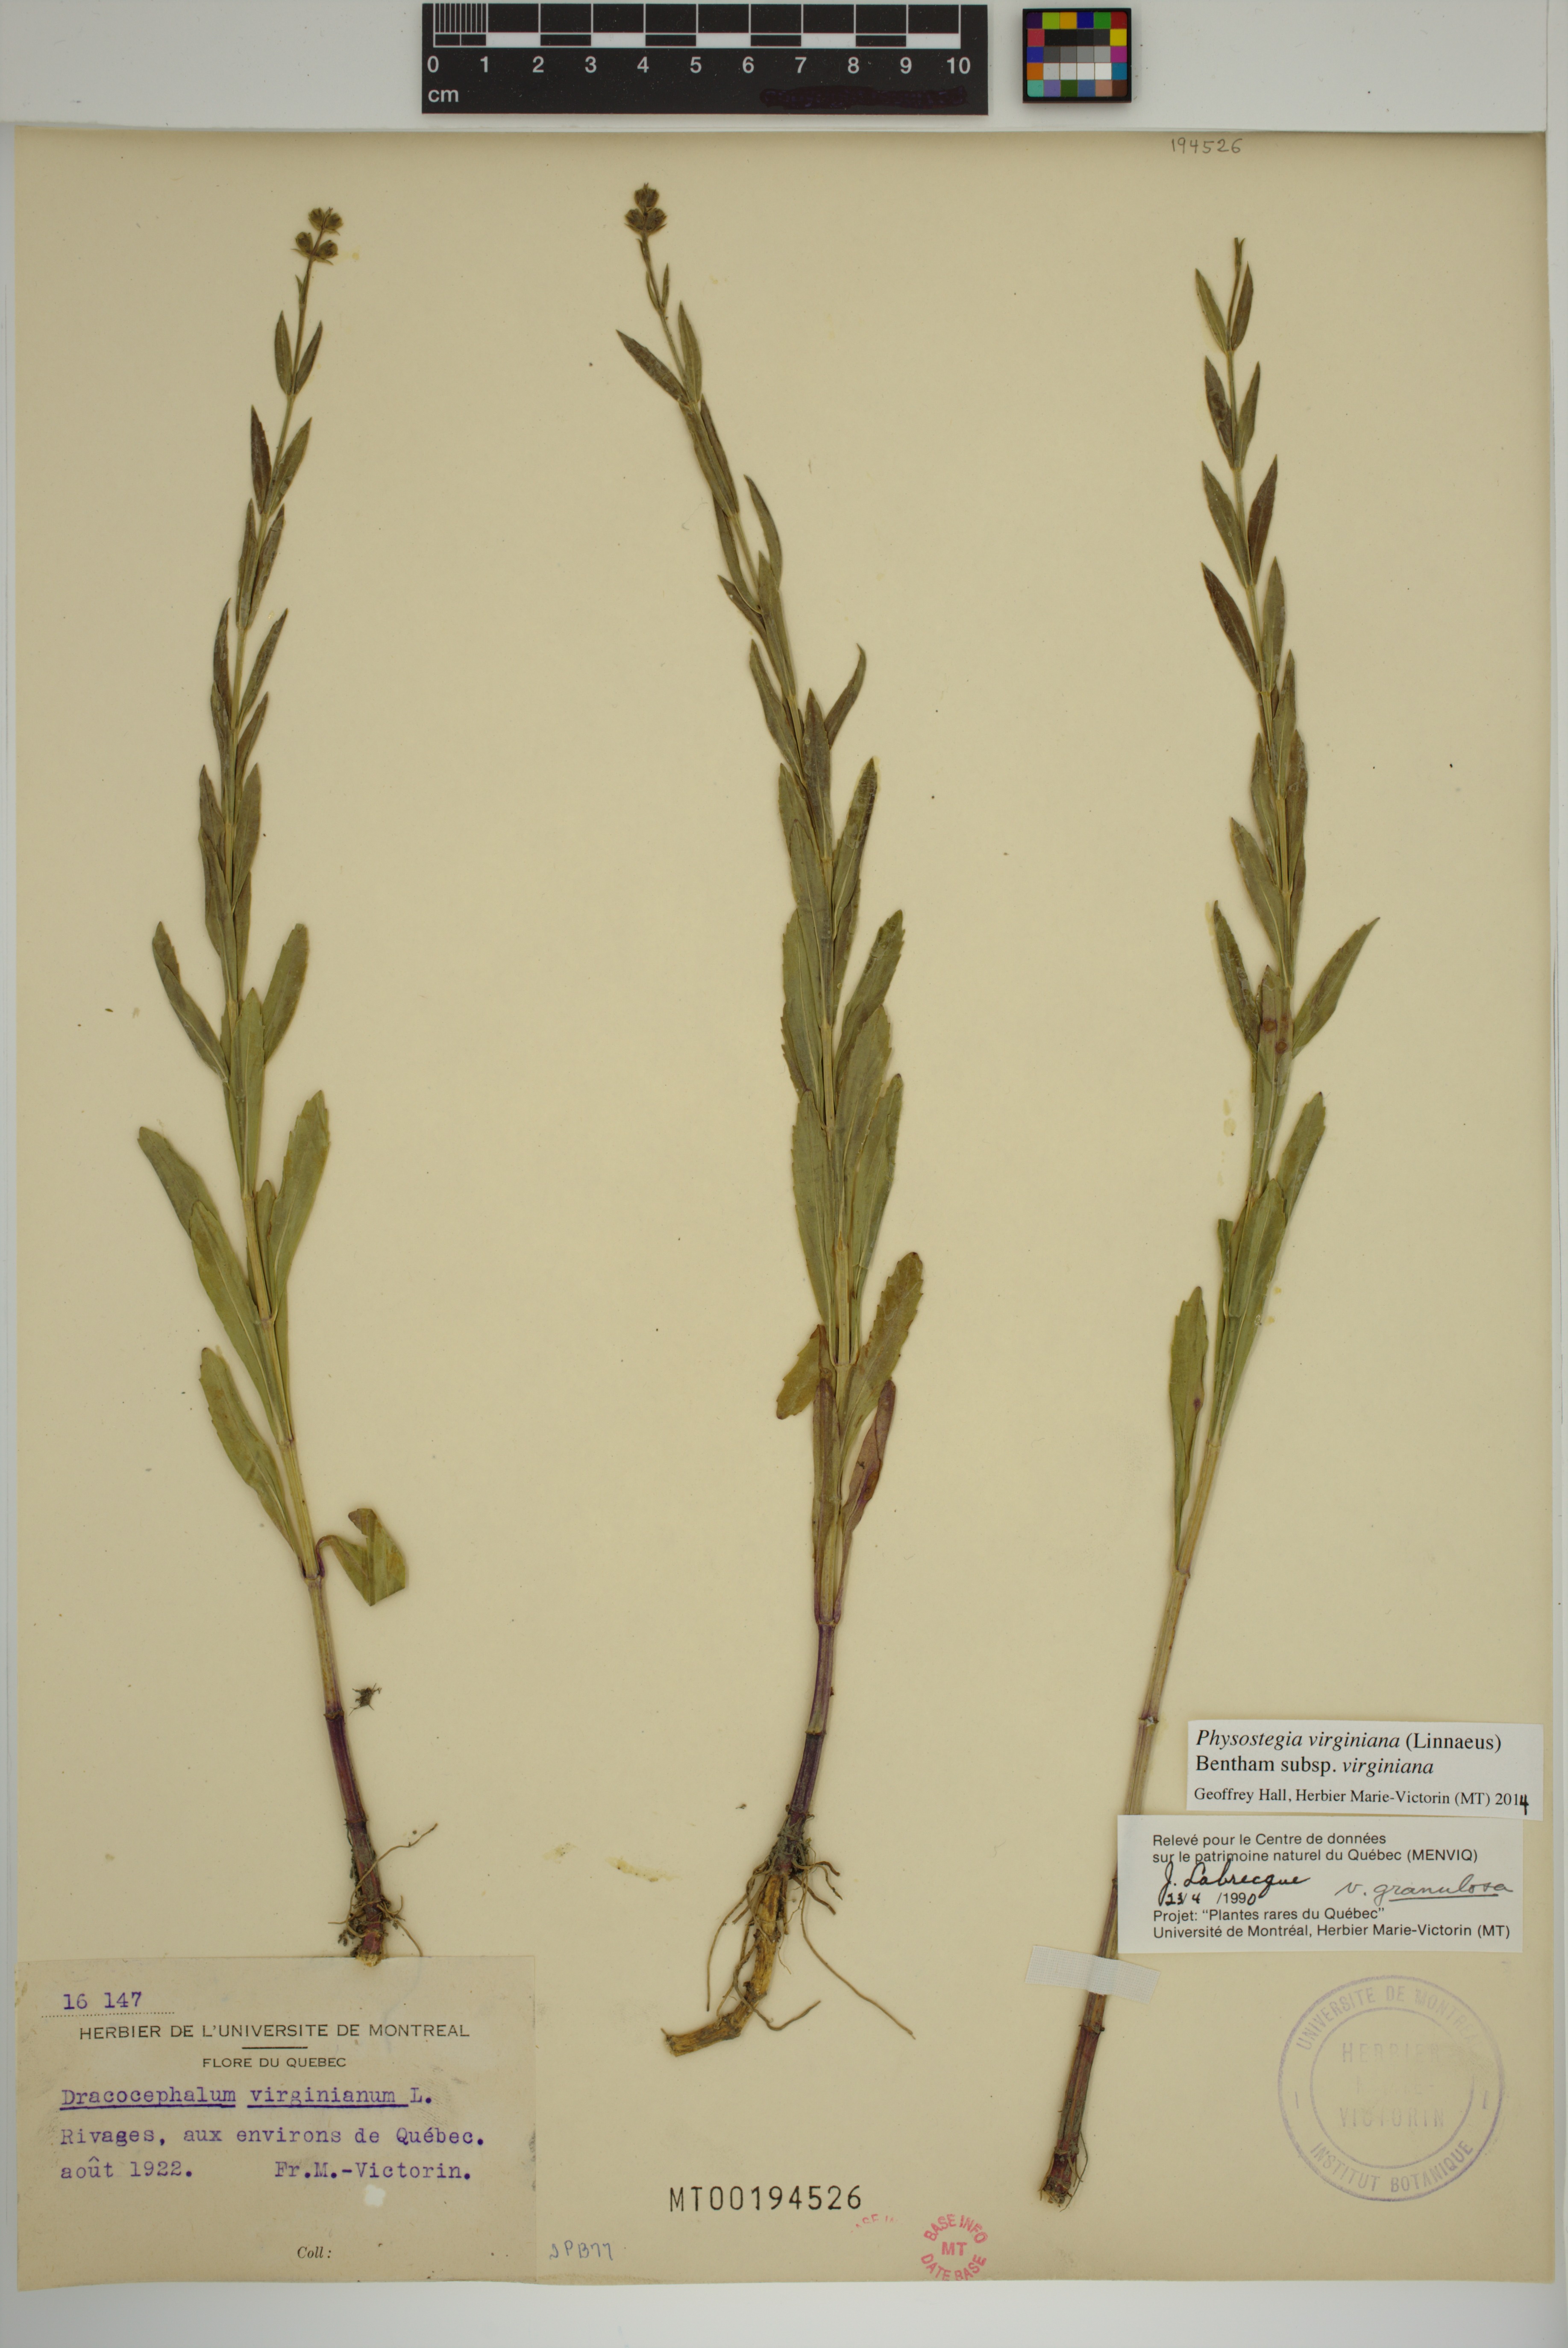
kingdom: Plantae
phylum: Tracheophyta
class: Magnoliopsida
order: Lamiales
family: Lamiaceae
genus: Physostegia
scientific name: Physostegia virginiana
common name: Obedient-plant
